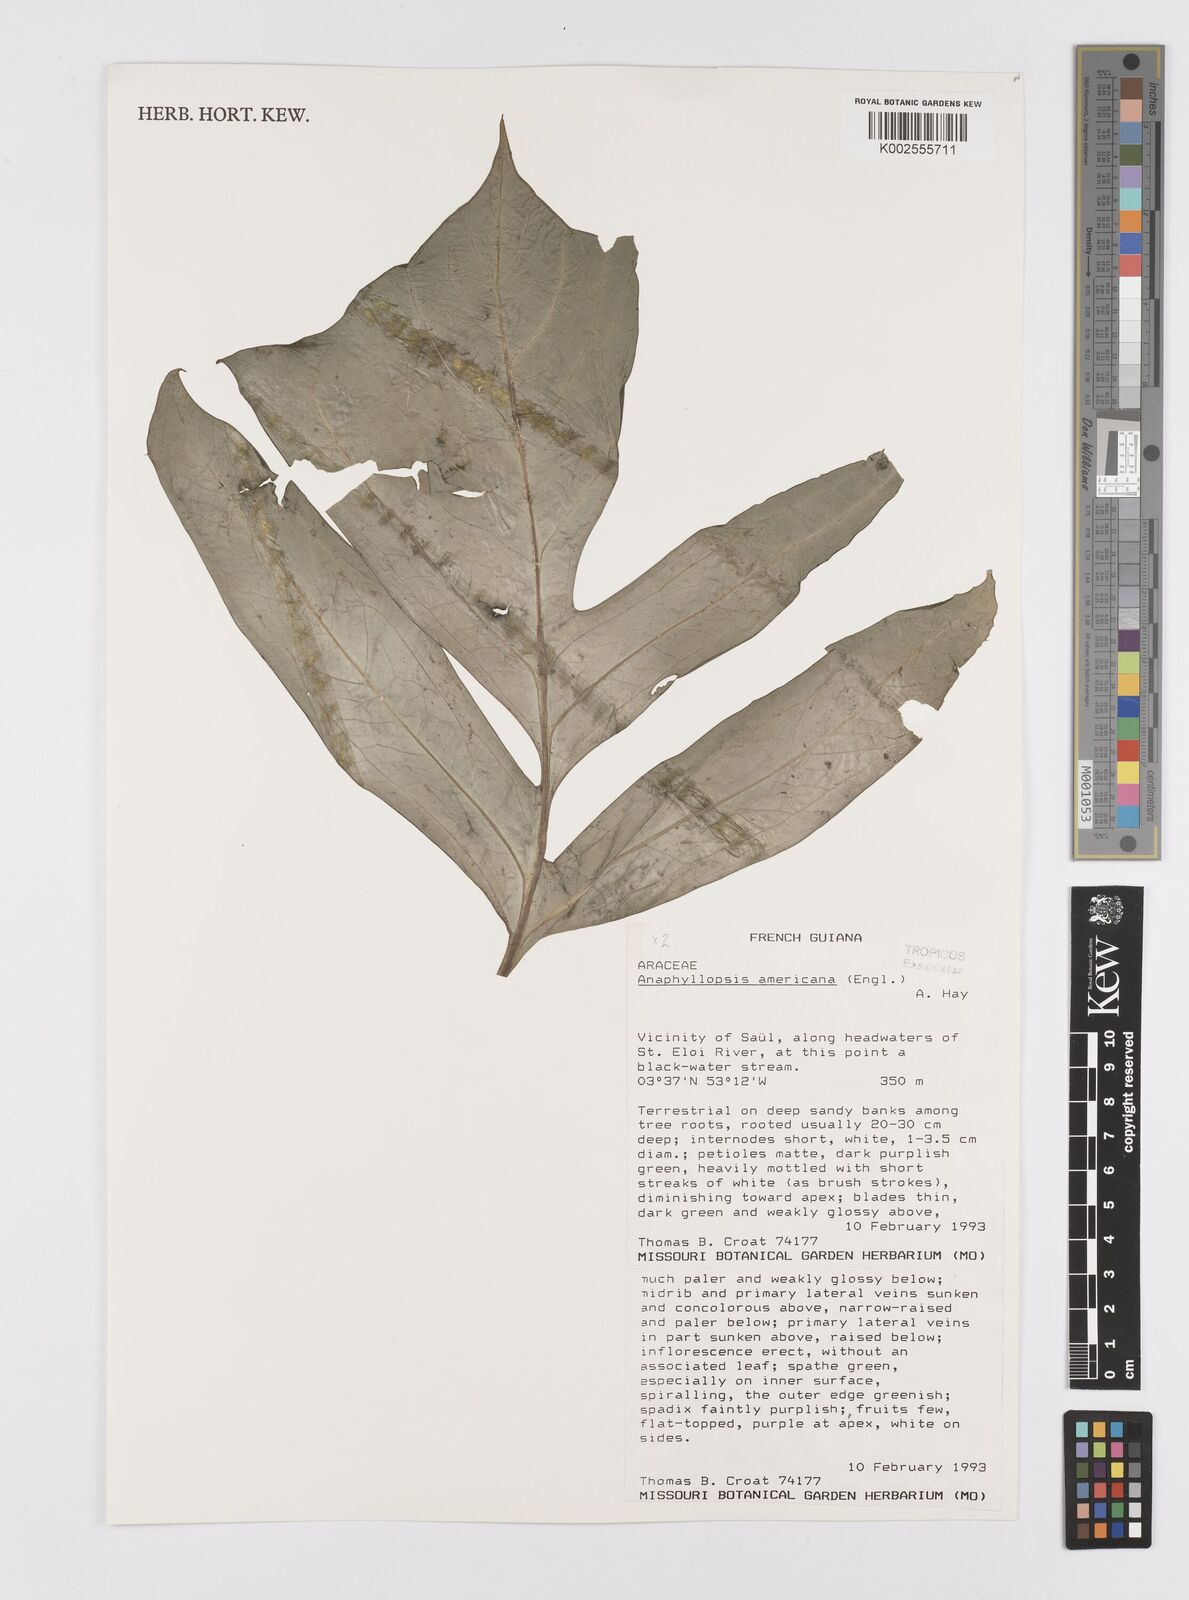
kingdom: Plantae
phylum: Tracheophyta
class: Liliopsida
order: Alismatales
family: Araceae
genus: Anaphyllopsis
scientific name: Anaphyllopsis americana
